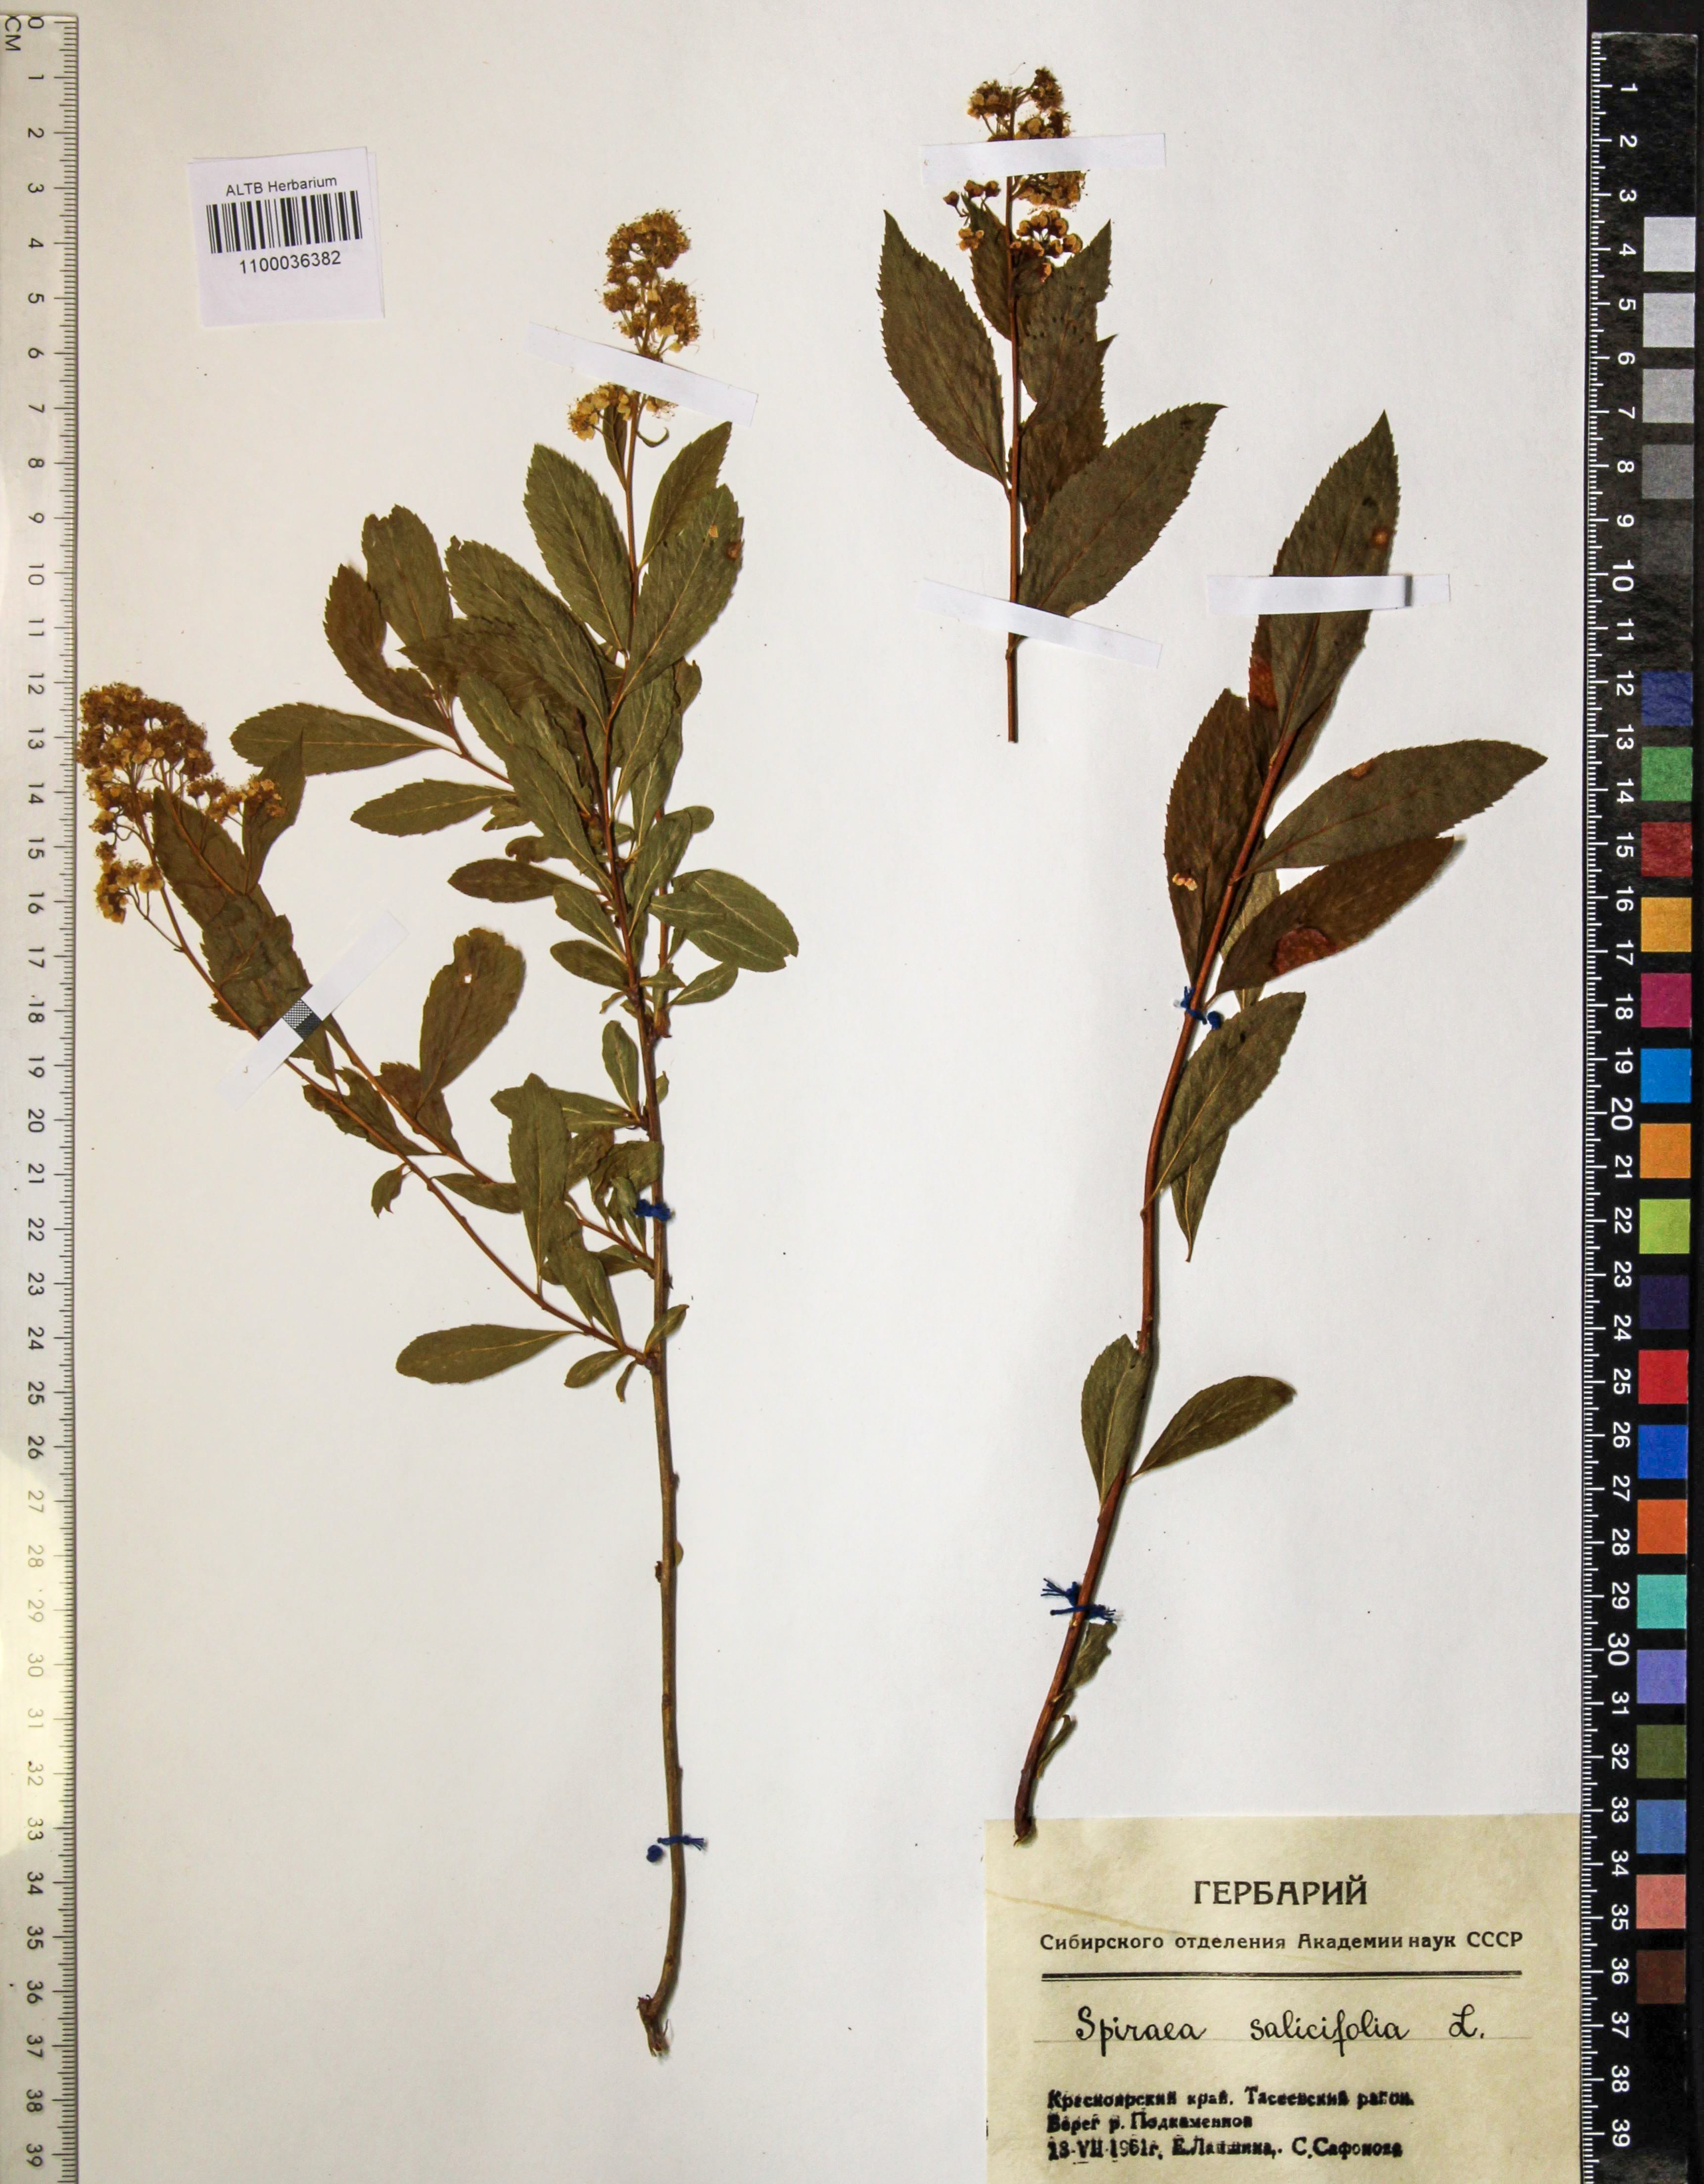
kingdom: Plantae
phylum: Tracheophyta
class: Magnoliopsida
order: Rosales
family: Rosaceae
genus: Spiraea
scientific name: Spiraea salicifolia
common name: Bridewort
